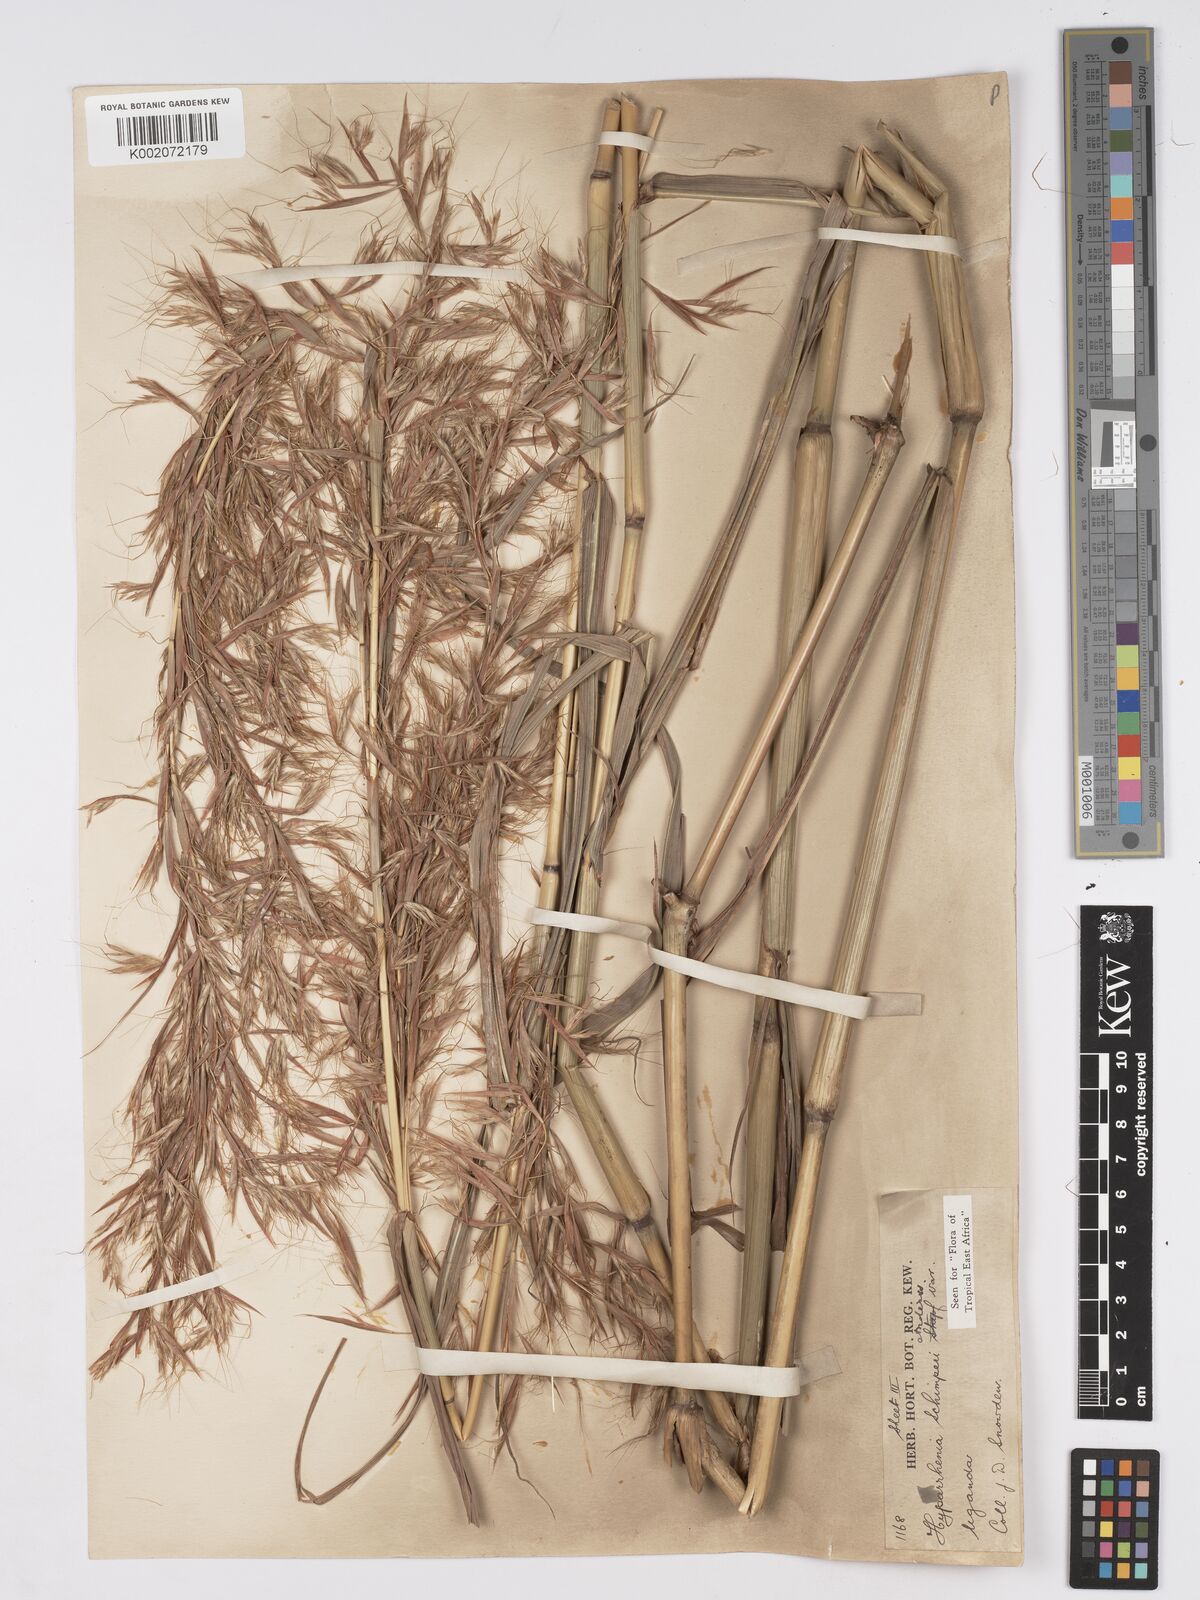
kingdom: Plantae
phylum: Tracheophyta
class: Liliopsida
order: Poales
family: Poaceae
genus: Hyparrhenia
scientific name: Hyparrhenia schimperi
